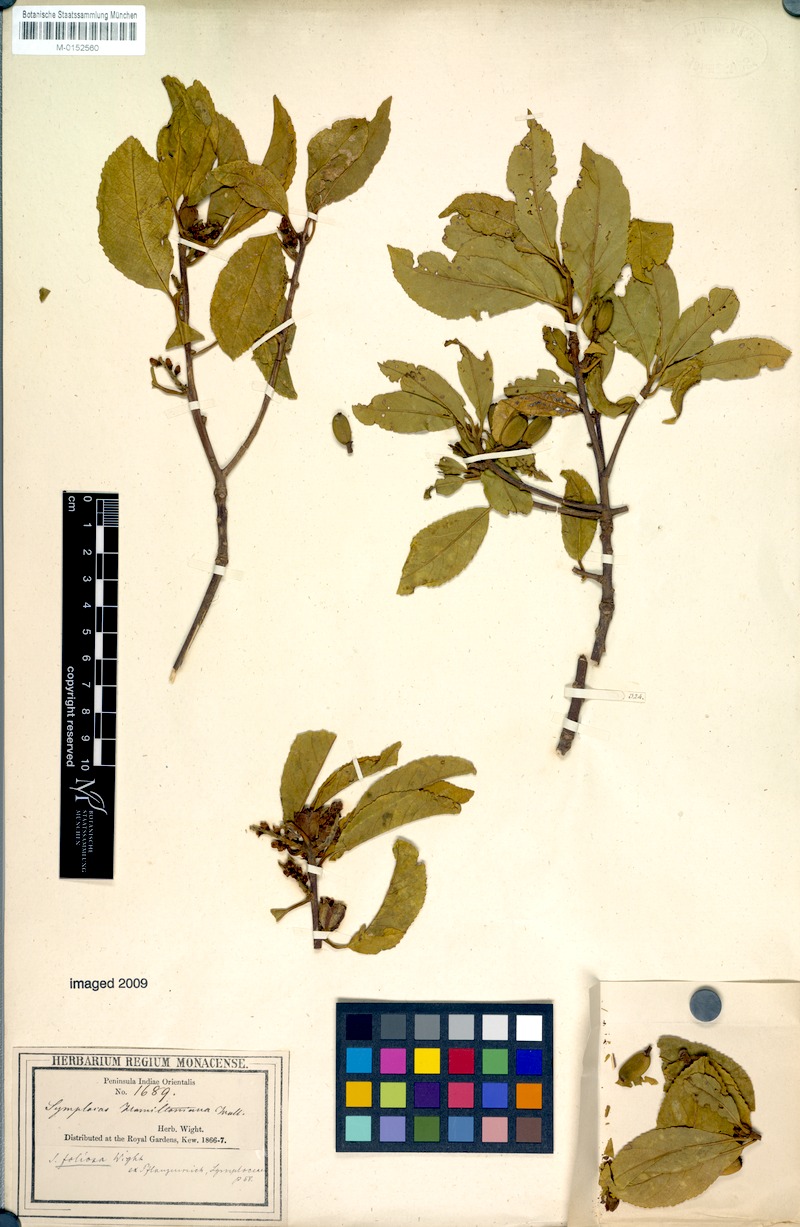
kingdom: Plantae
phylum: Tracheophyta
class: Magnoliopsida
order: Ericales
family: Symplocaceae
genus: Symplocos
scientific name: Symplocos foliosa
